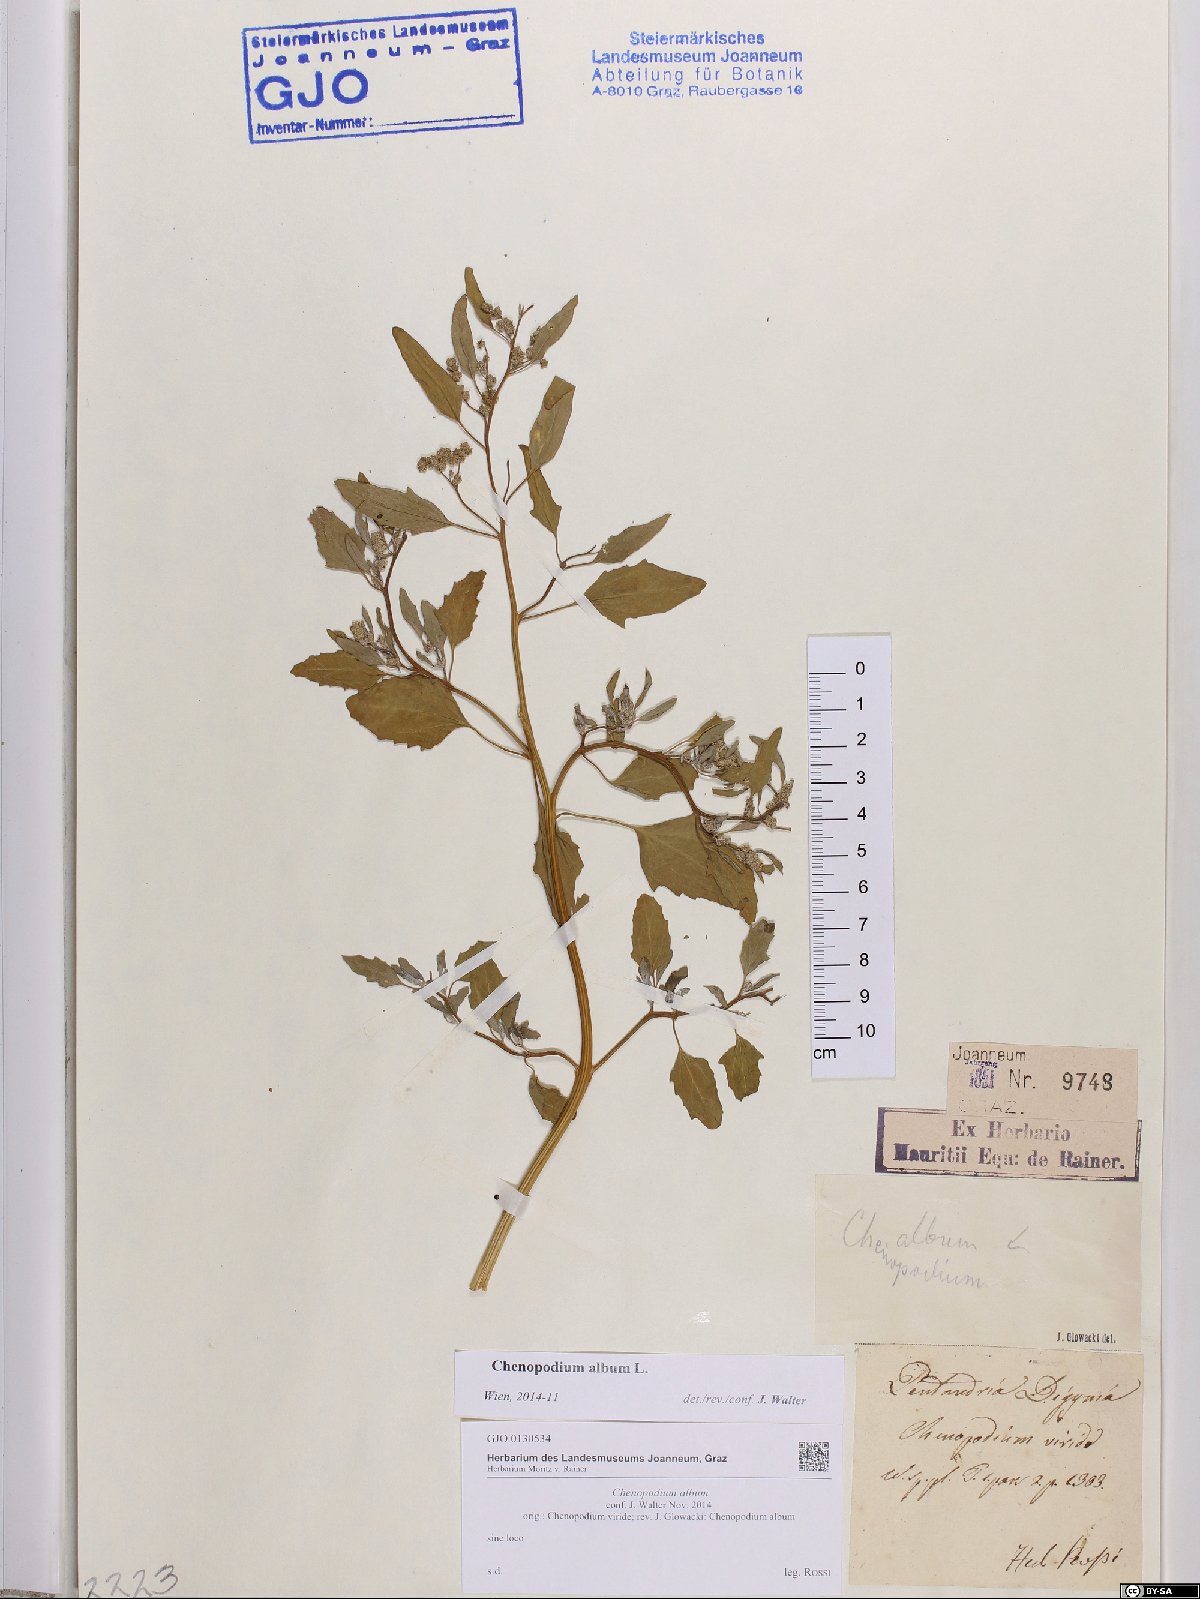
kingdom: Plantae
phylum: Tracheophyta
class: Magnoliopsida
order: Caryophyllales
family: Amaranthaceae
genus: Chenopodium
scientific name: Chenopodium album
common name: Fat-hen
